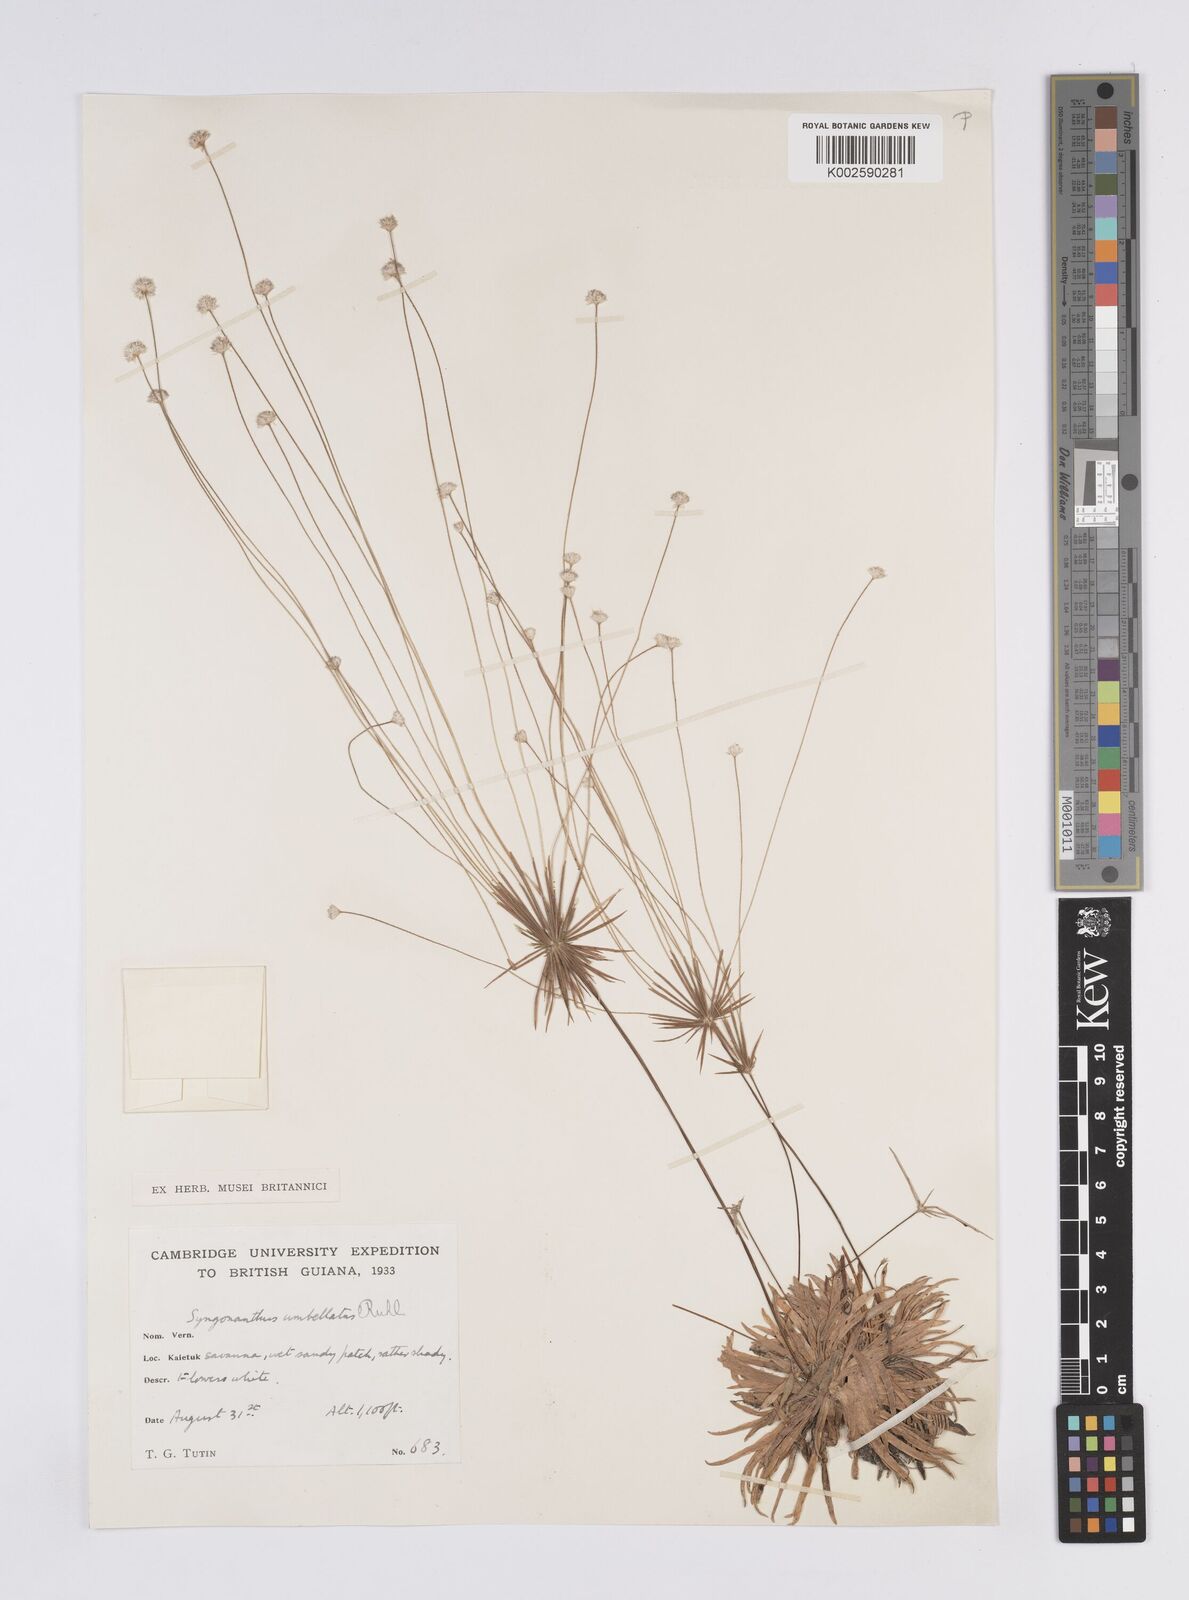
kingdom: Plantae
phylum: Tracheophyta
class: Liliopsida
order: Poales
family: Eriocaulaceae
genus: Syngonanthus
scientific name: Syngonanthus umbellatus
